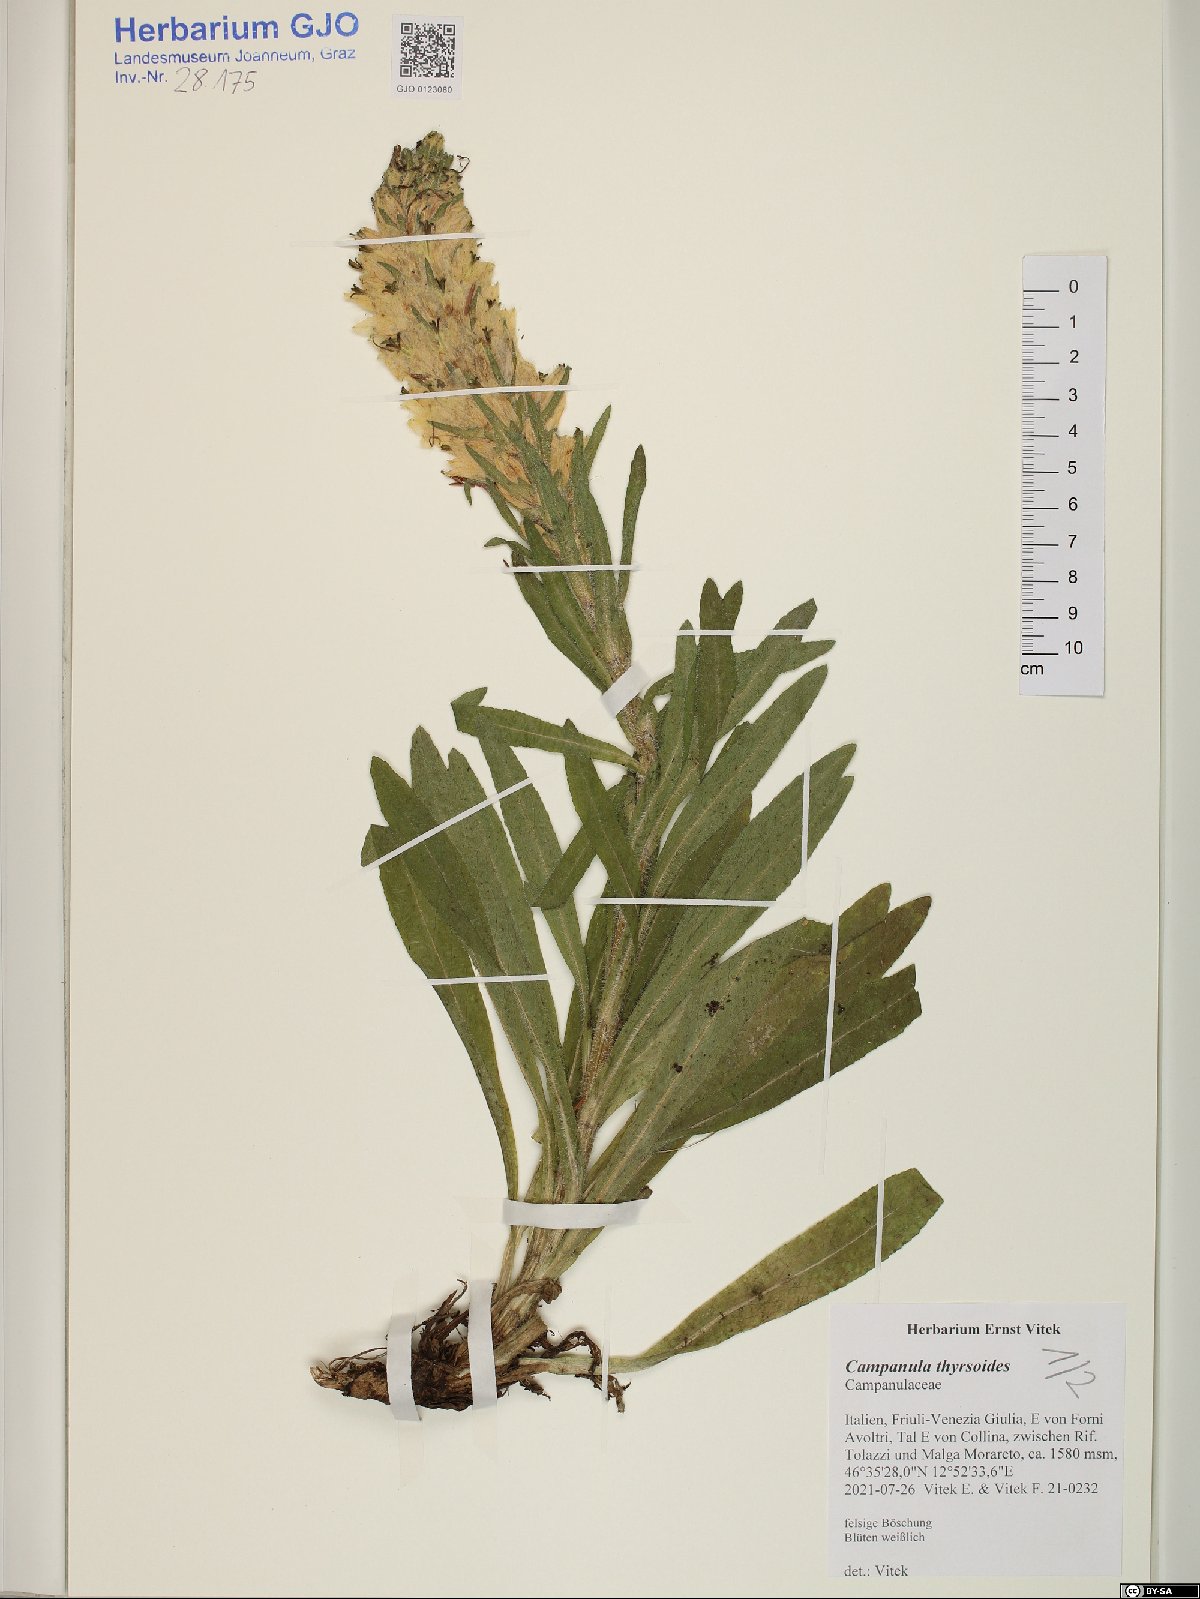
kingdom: Plantae
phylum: Tracheophyta
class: Magnoliopsida
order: Asterales
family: Campanulaceae
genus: Campanula
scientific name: Campanula thyrsoides
